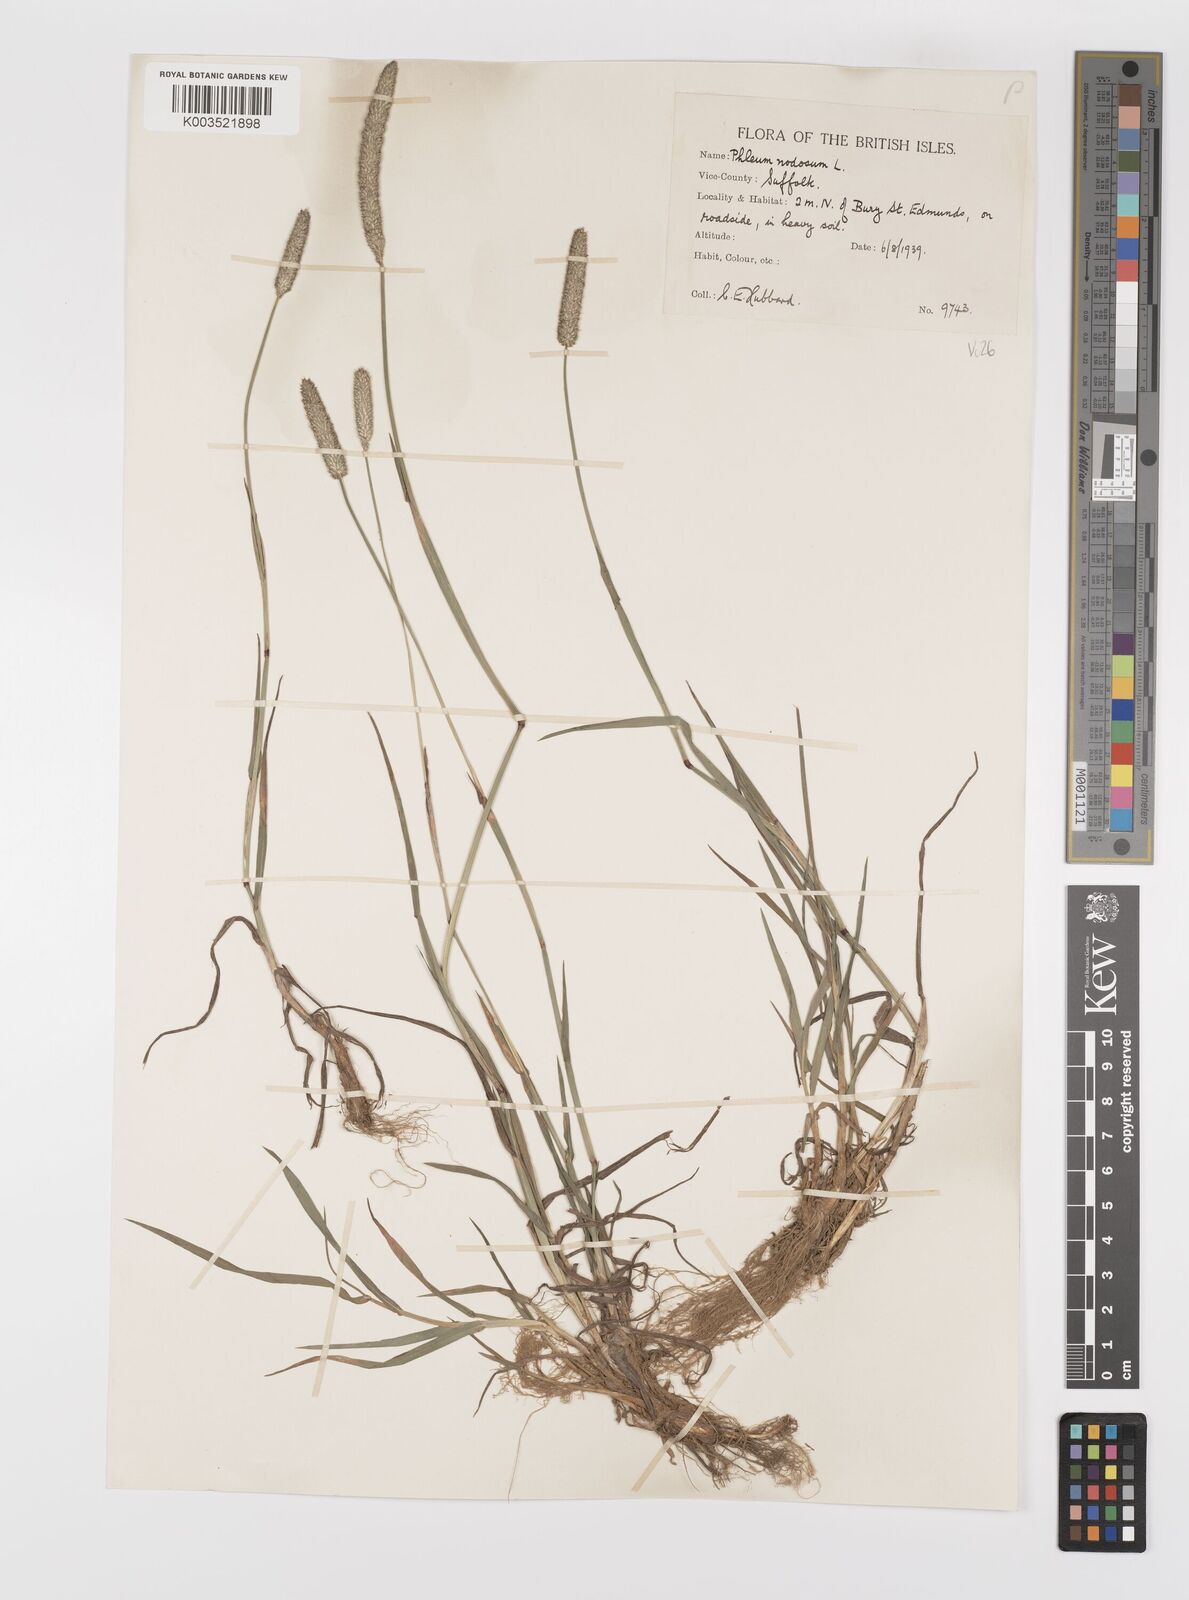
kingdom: Plantae
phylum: Tracheophyta
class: Liliopsida
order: Poales
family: Poaceae
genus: Phleum
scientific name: Phleum bertolonii
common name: Smaller cat's-tail
